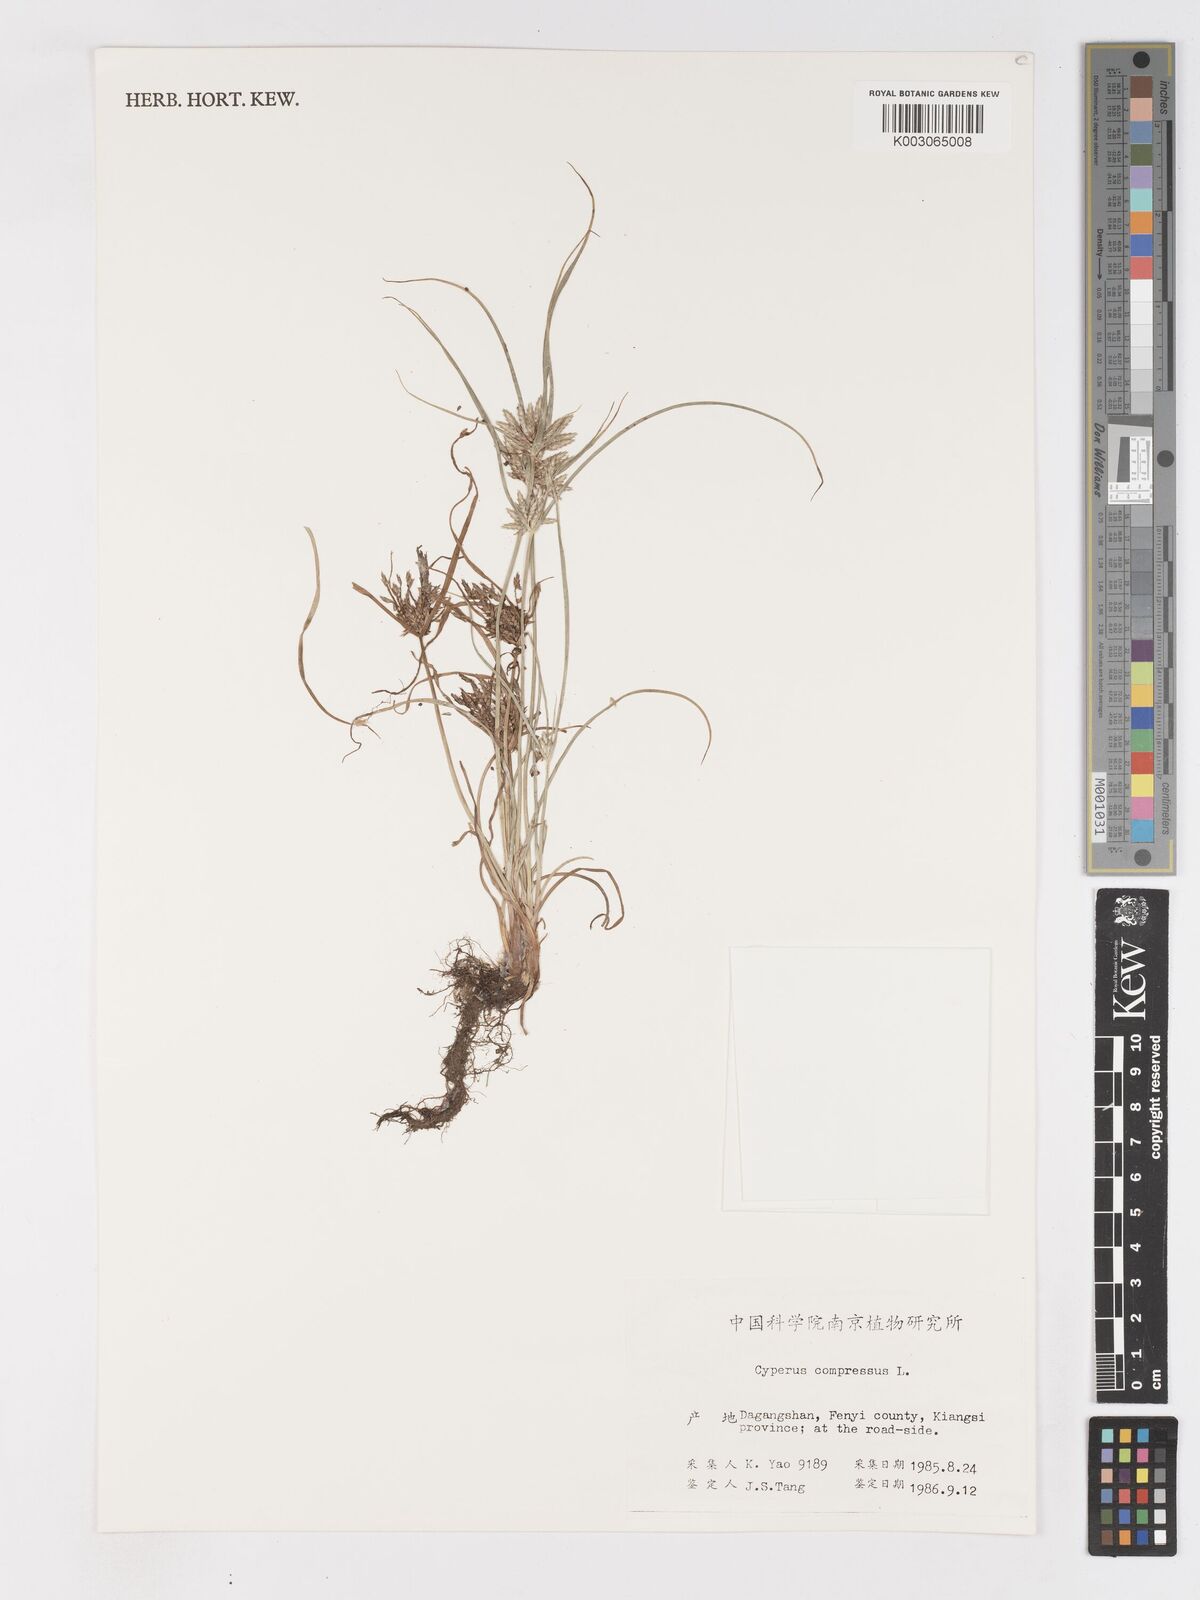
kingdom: Plantae
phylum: Tracheophyta
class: Liliopsida
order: Poales
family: Cyperaceae
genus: Cyperus
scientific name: Cyperus compressus
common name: Poorland flatsedge
